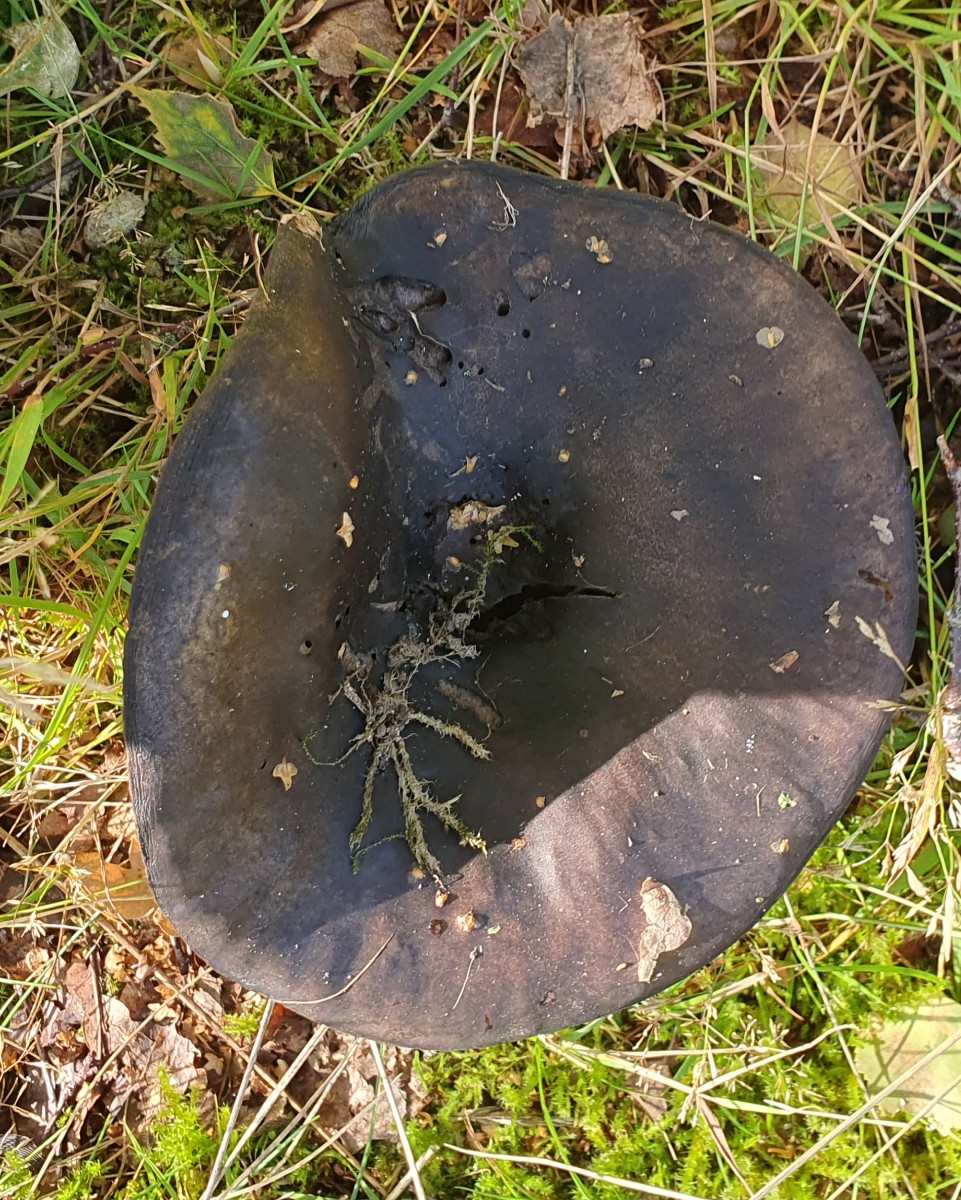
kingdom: Fungi
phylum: Basidiomycota
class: Agaricomycetes
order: Russulales
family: Russulaceae
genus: Russula
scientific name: Russula adusta
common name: sværtende skørhat
